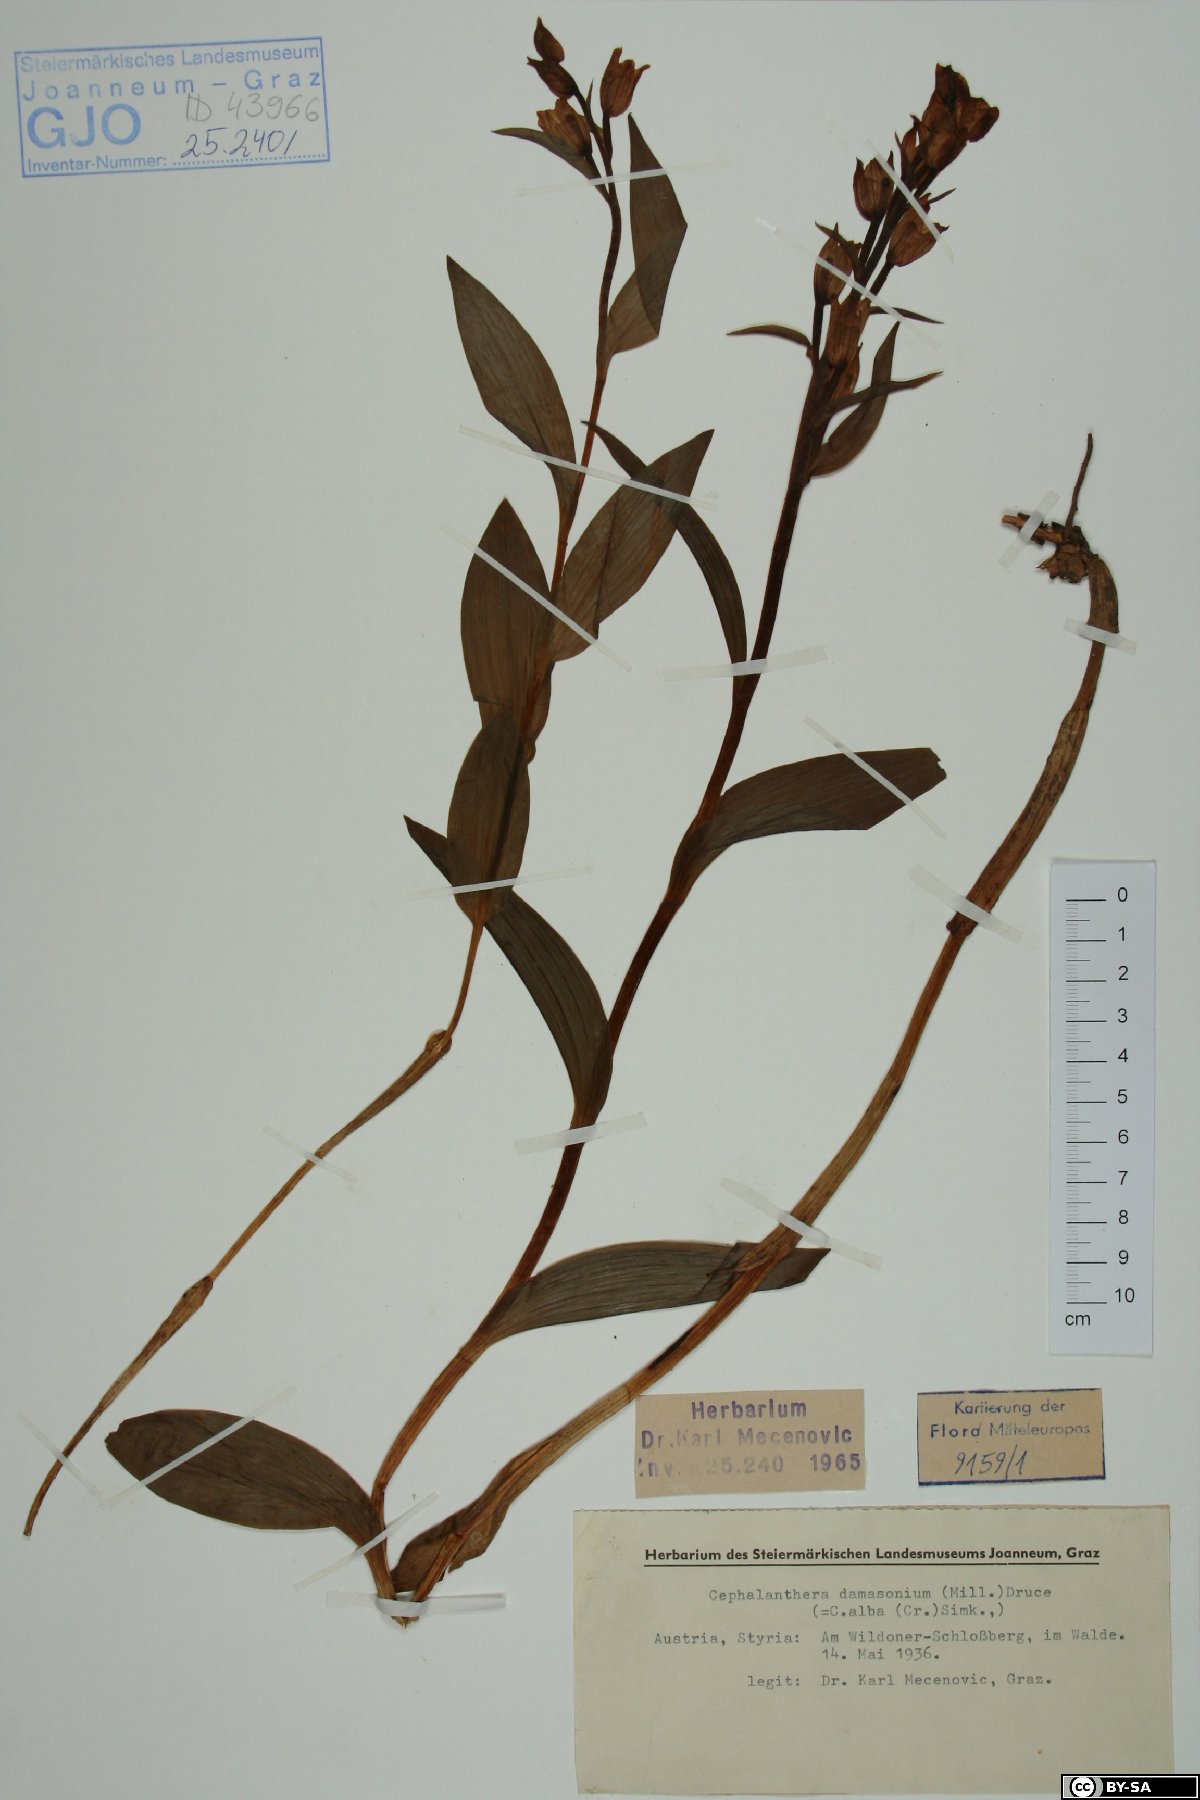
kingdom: Plantae
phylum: Tracheophyta
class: Liliopsida
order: Asparagales
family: Orchidaceae
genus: Cephalanthera
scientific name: Cephalanthera damasonium
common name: White helleborine
